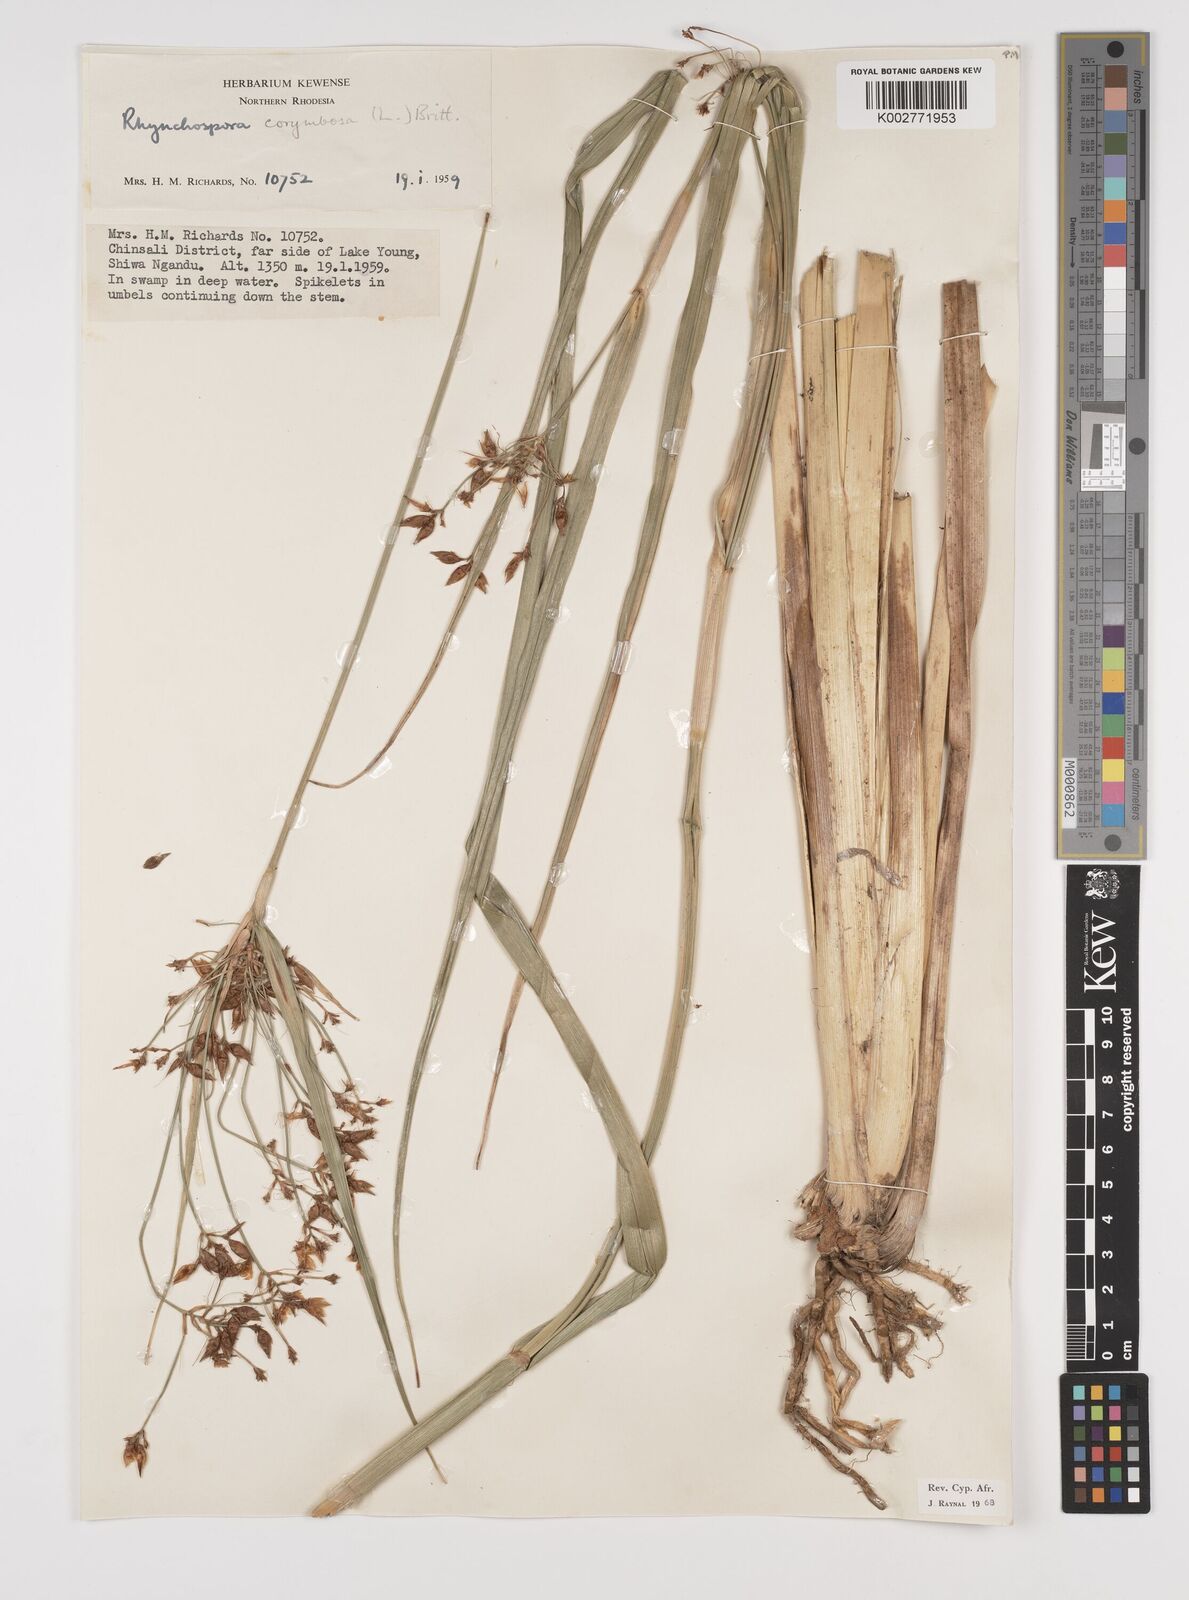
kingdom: Plantae
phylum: Tracheophyta
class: Liliopsida
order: Poales
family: Cyperaceae
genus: Rhynchospora
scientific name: Rhynchospora corymbosa
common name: Golden beak sedge
